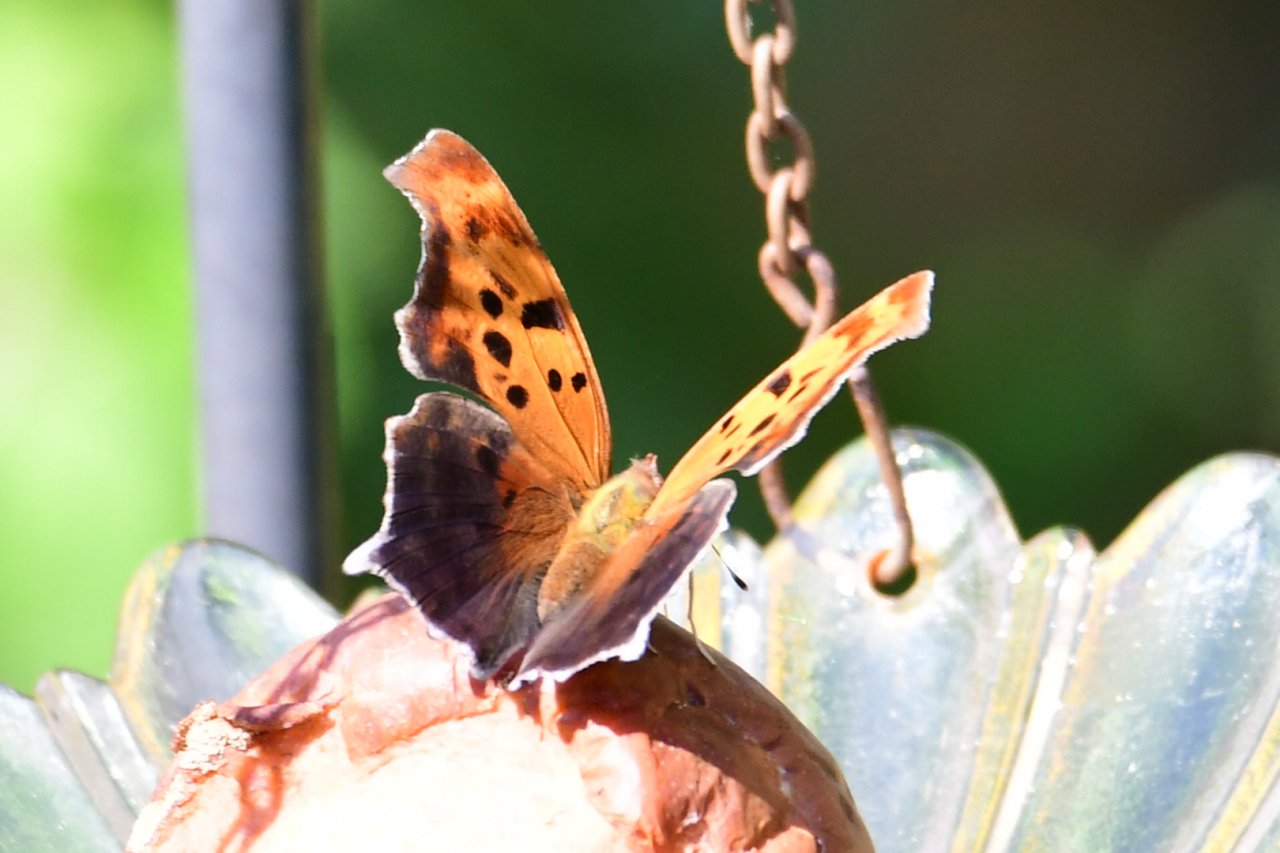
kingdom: Animalia
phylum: Arthropoda
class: Insecta
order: Lepidoptera
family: Nymphalidae
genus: Polygonia
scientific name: Polygonia interrogationis
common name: Question Mark
